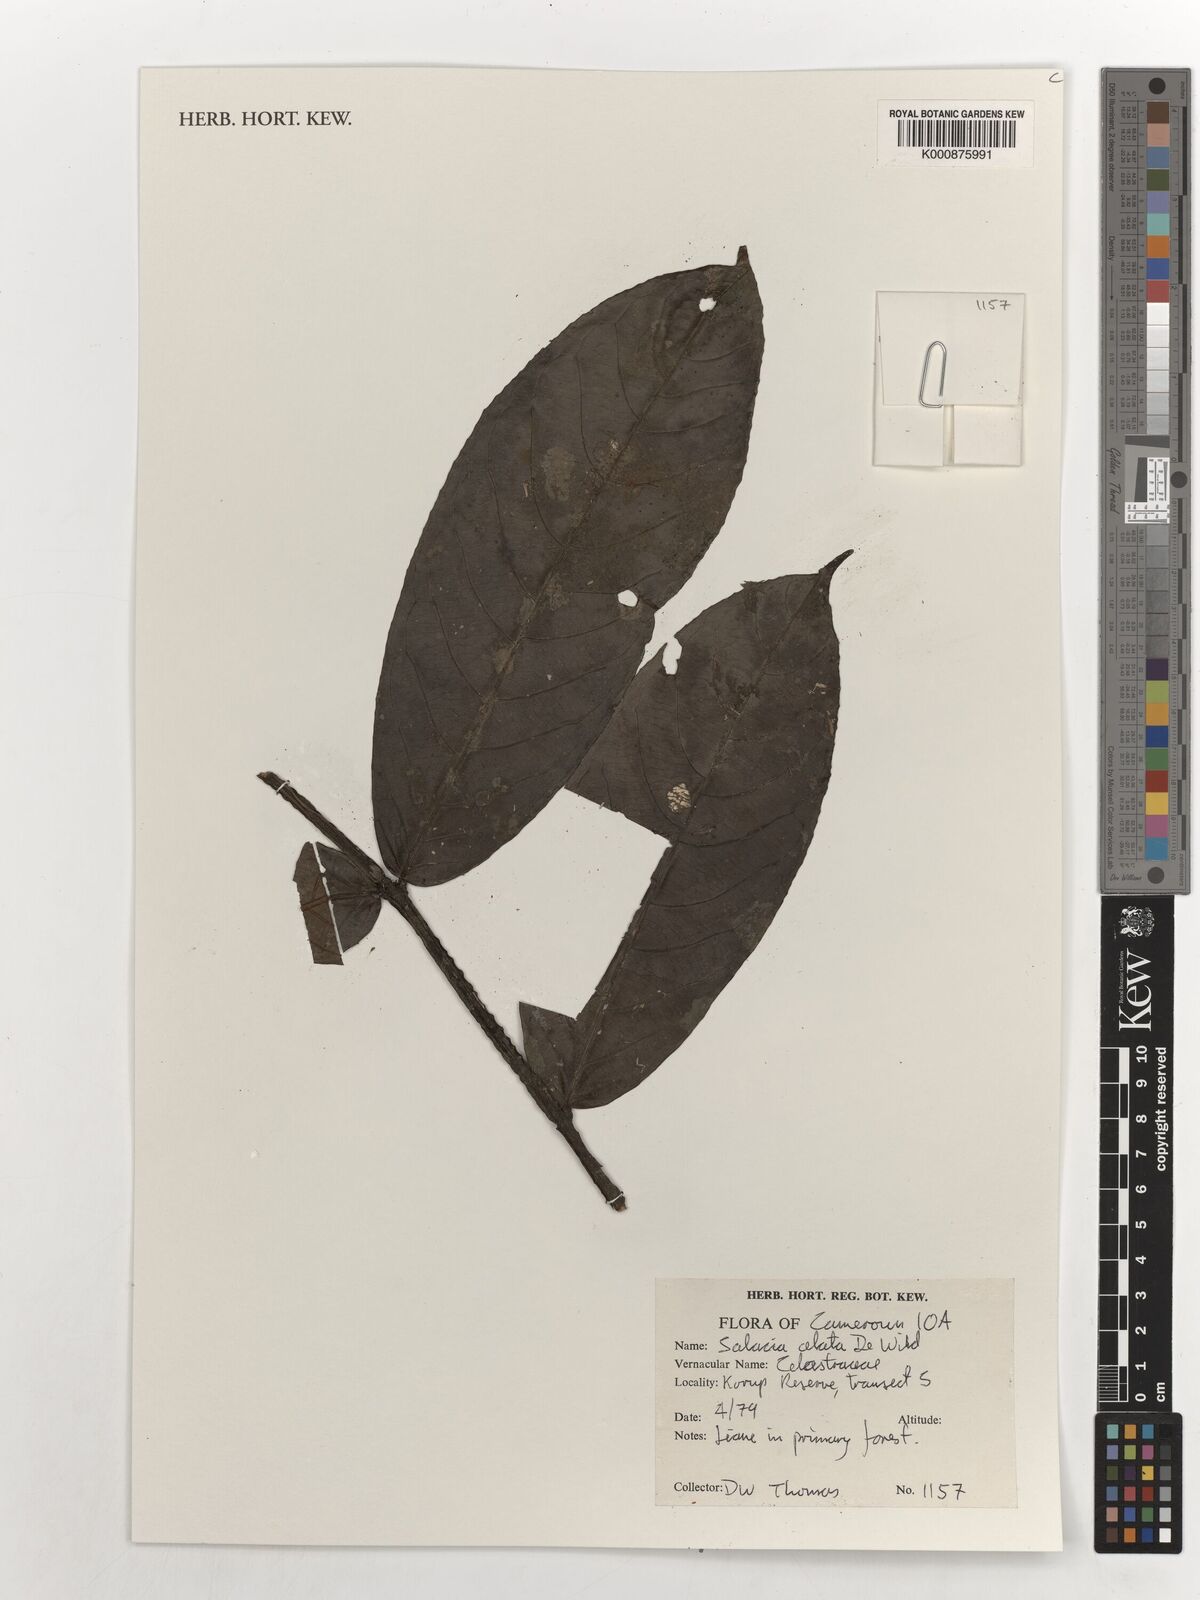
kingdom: Plantae
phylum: Tracheophyta
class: Magnoliopsida
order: Celastrales
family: Celastraceae
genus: Salacia
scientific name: Salacia alata
